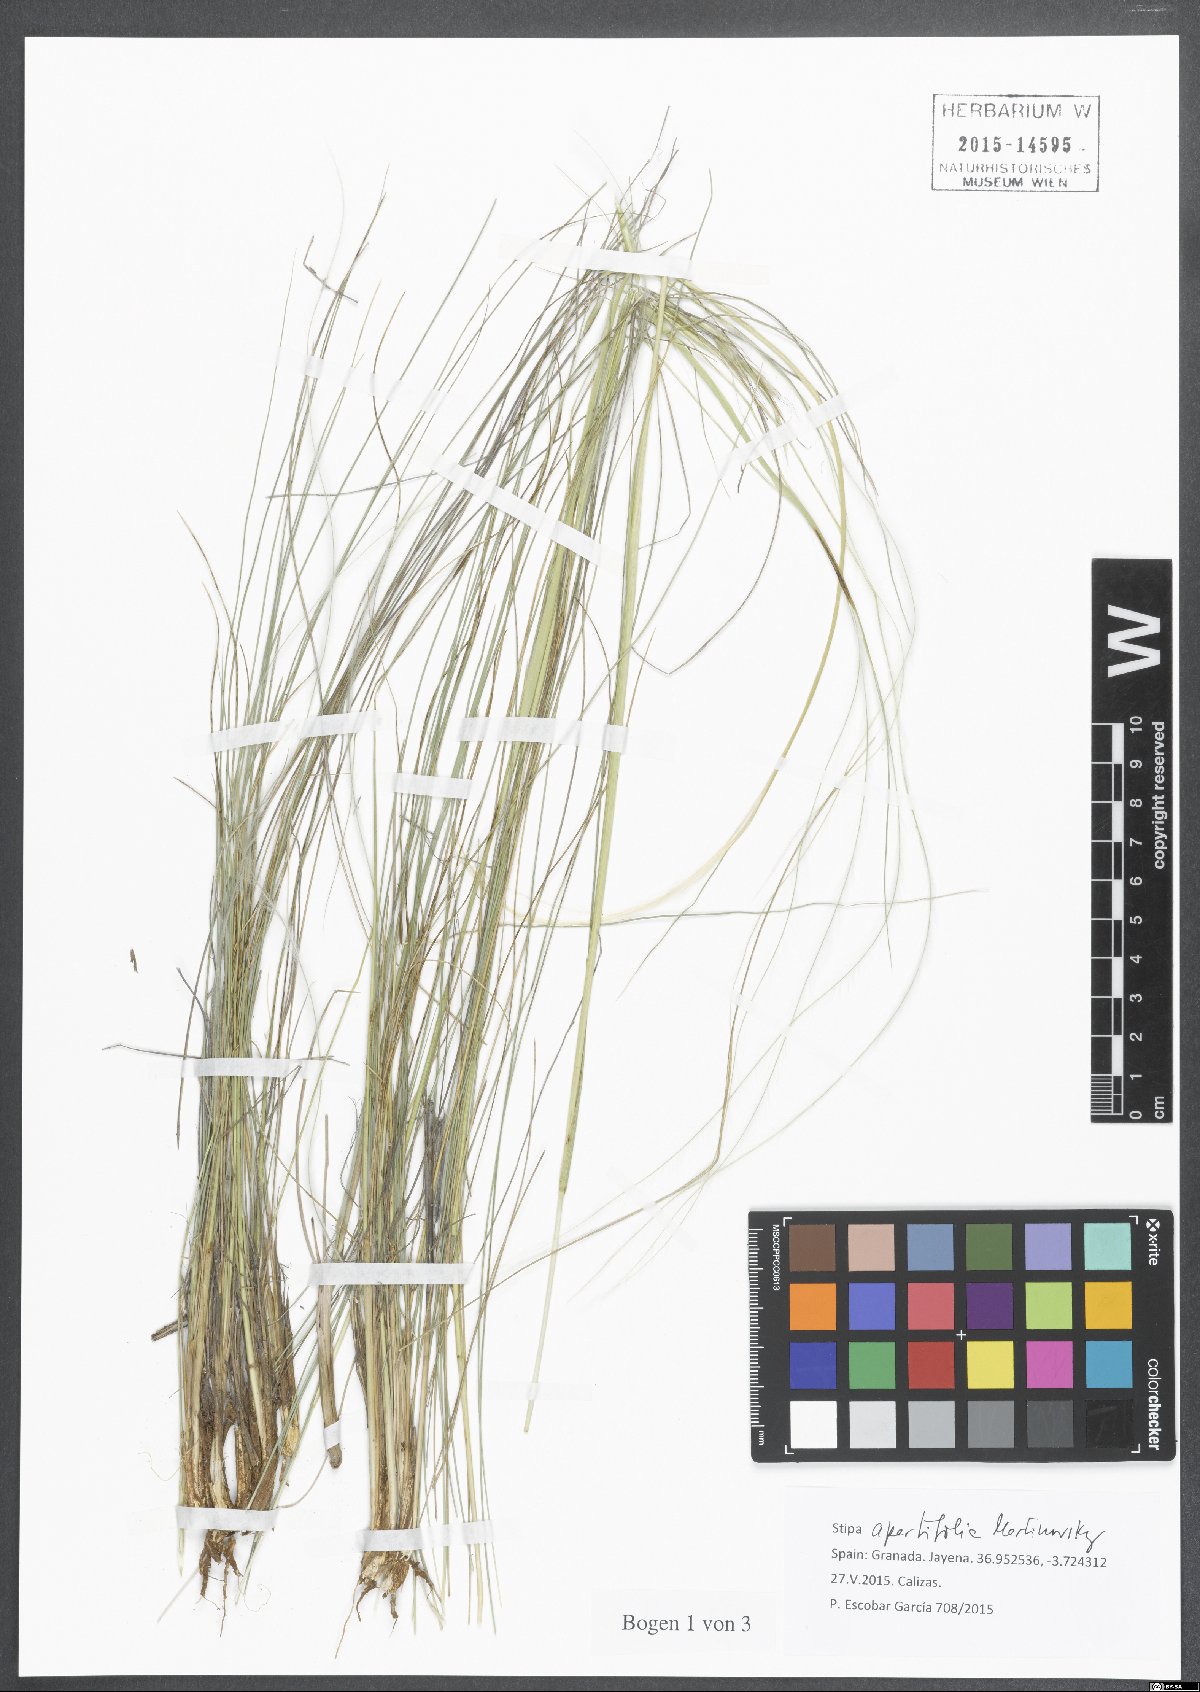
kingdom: Plantae
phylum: Tracheophyta
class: Liliopsida
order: Poales
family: Poaceae
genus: Stipa
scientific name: Stipa apertifolia
